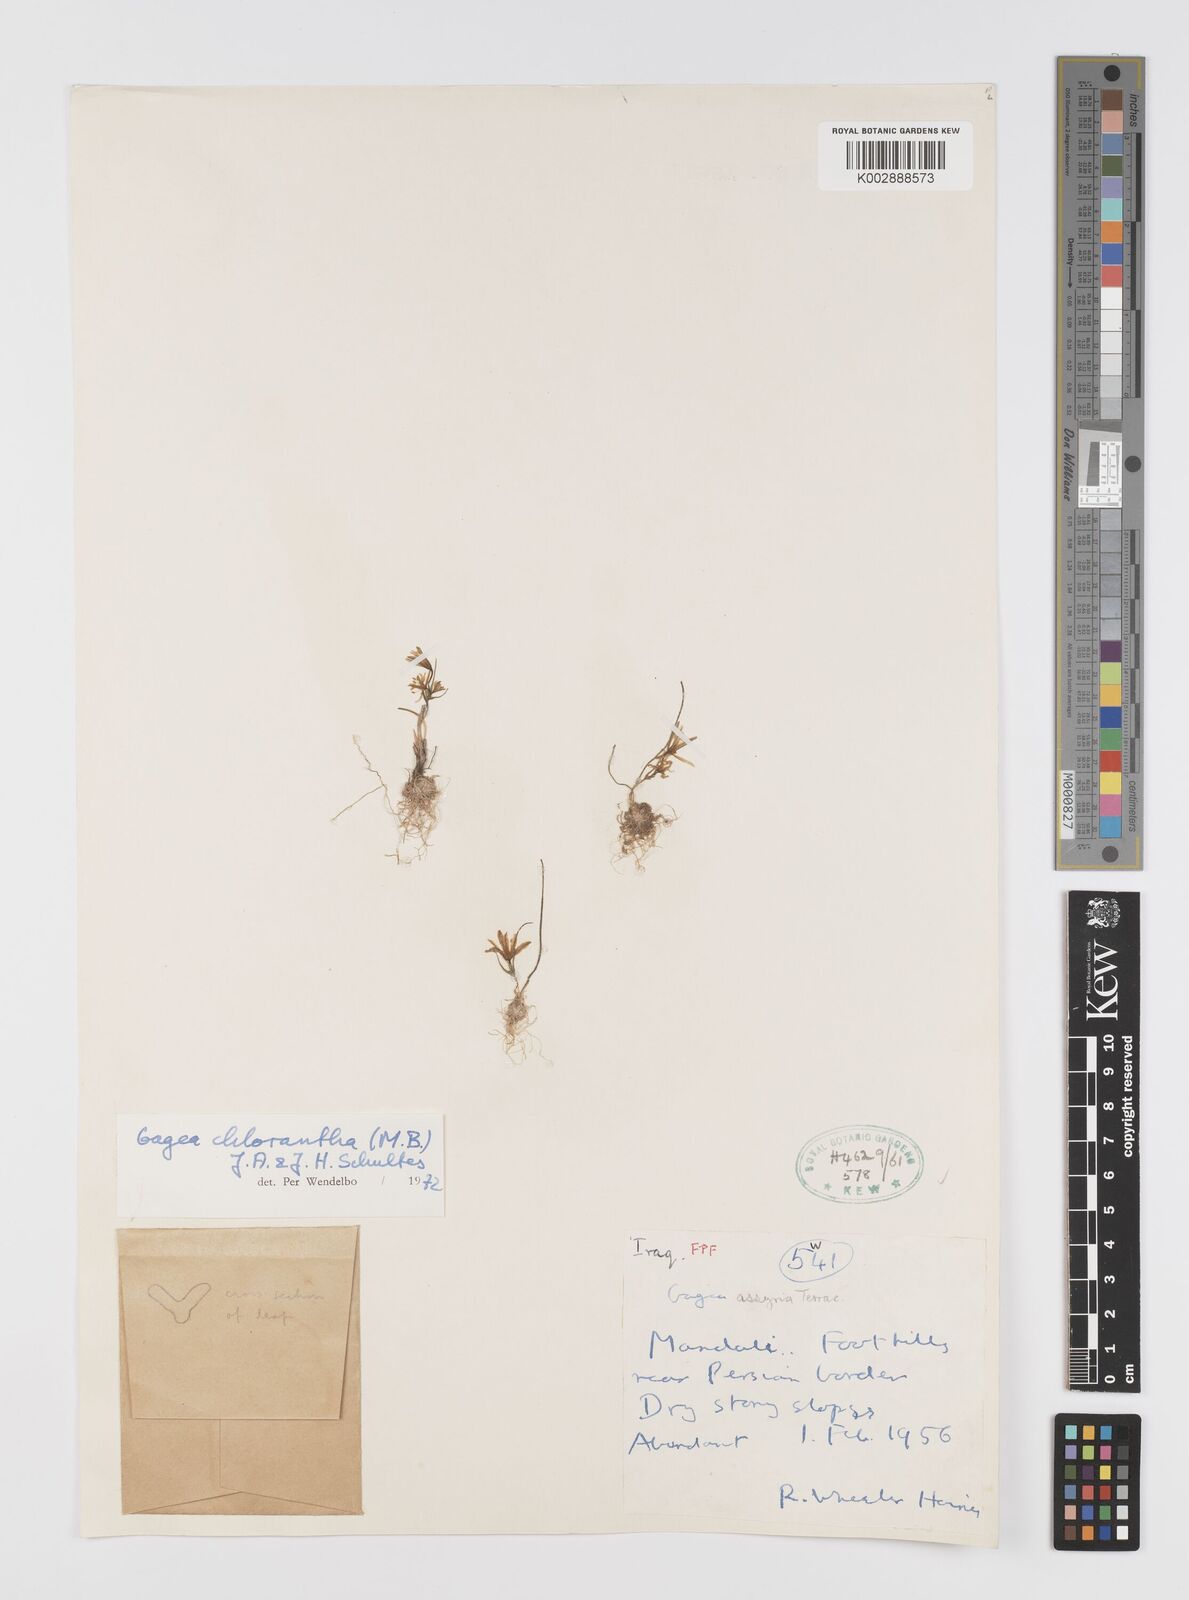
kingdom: Plantae
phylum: Tracheophyta
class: Liliopsida
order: Liliales
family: Liliaceae
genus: Gagea
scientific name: Gagea chlorantha
